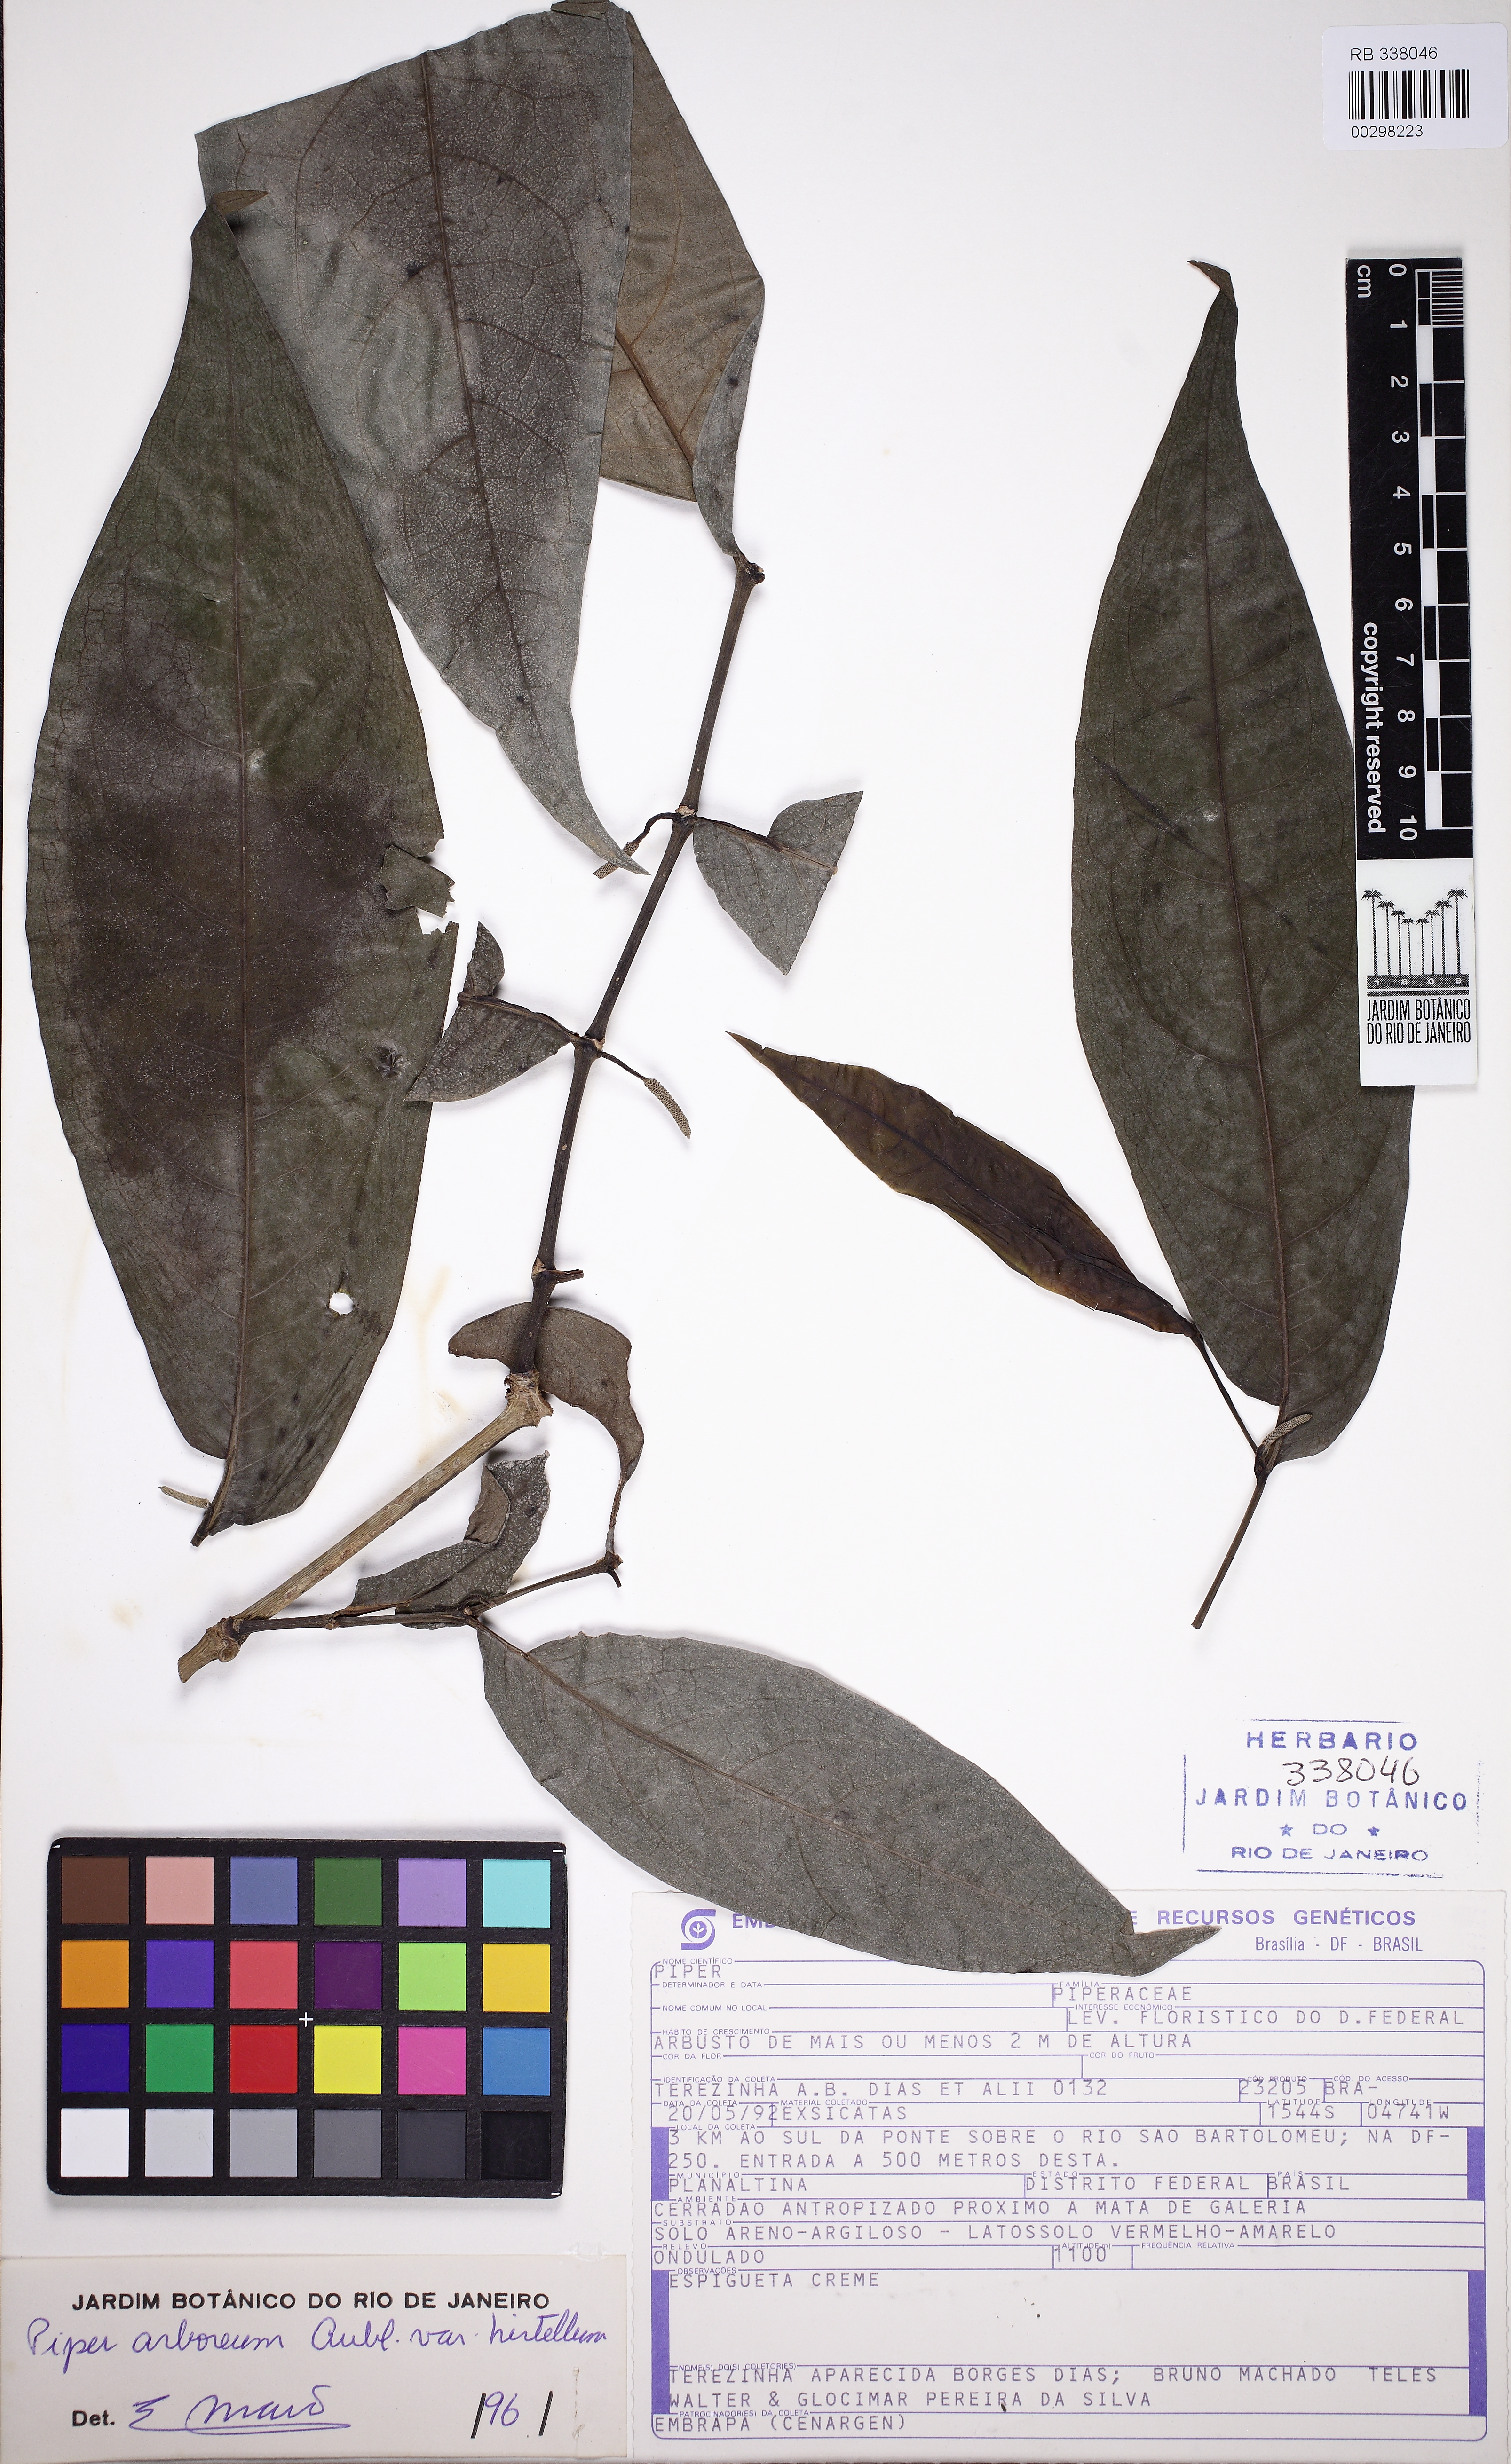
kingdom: Plantae
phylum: Tracheophyta
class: Magnoliopsida
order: Piperales
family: Piperaceae
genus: Piper
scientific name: Piper arboreum
